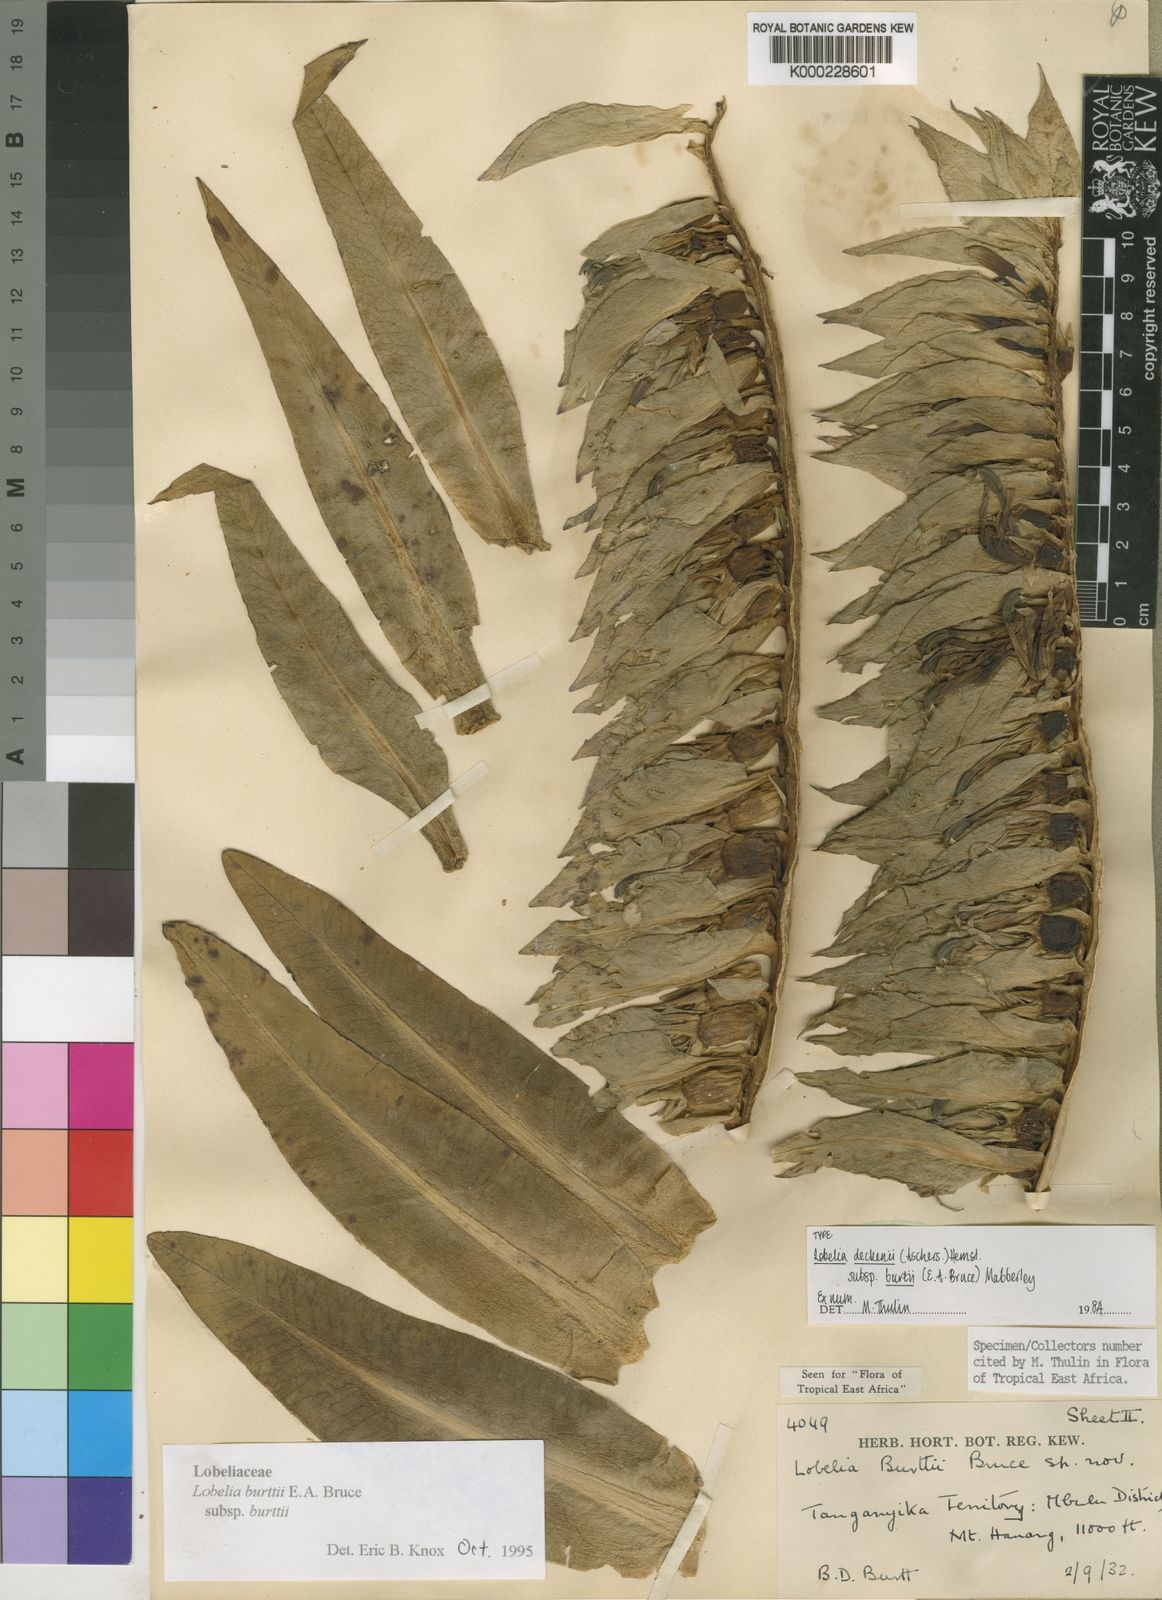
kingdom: Plantae
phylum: Tracheophyta
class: Magnoliopsida
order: Asterales
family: Campanulaceae
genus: Lobelia
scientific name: Lobelia burttii
